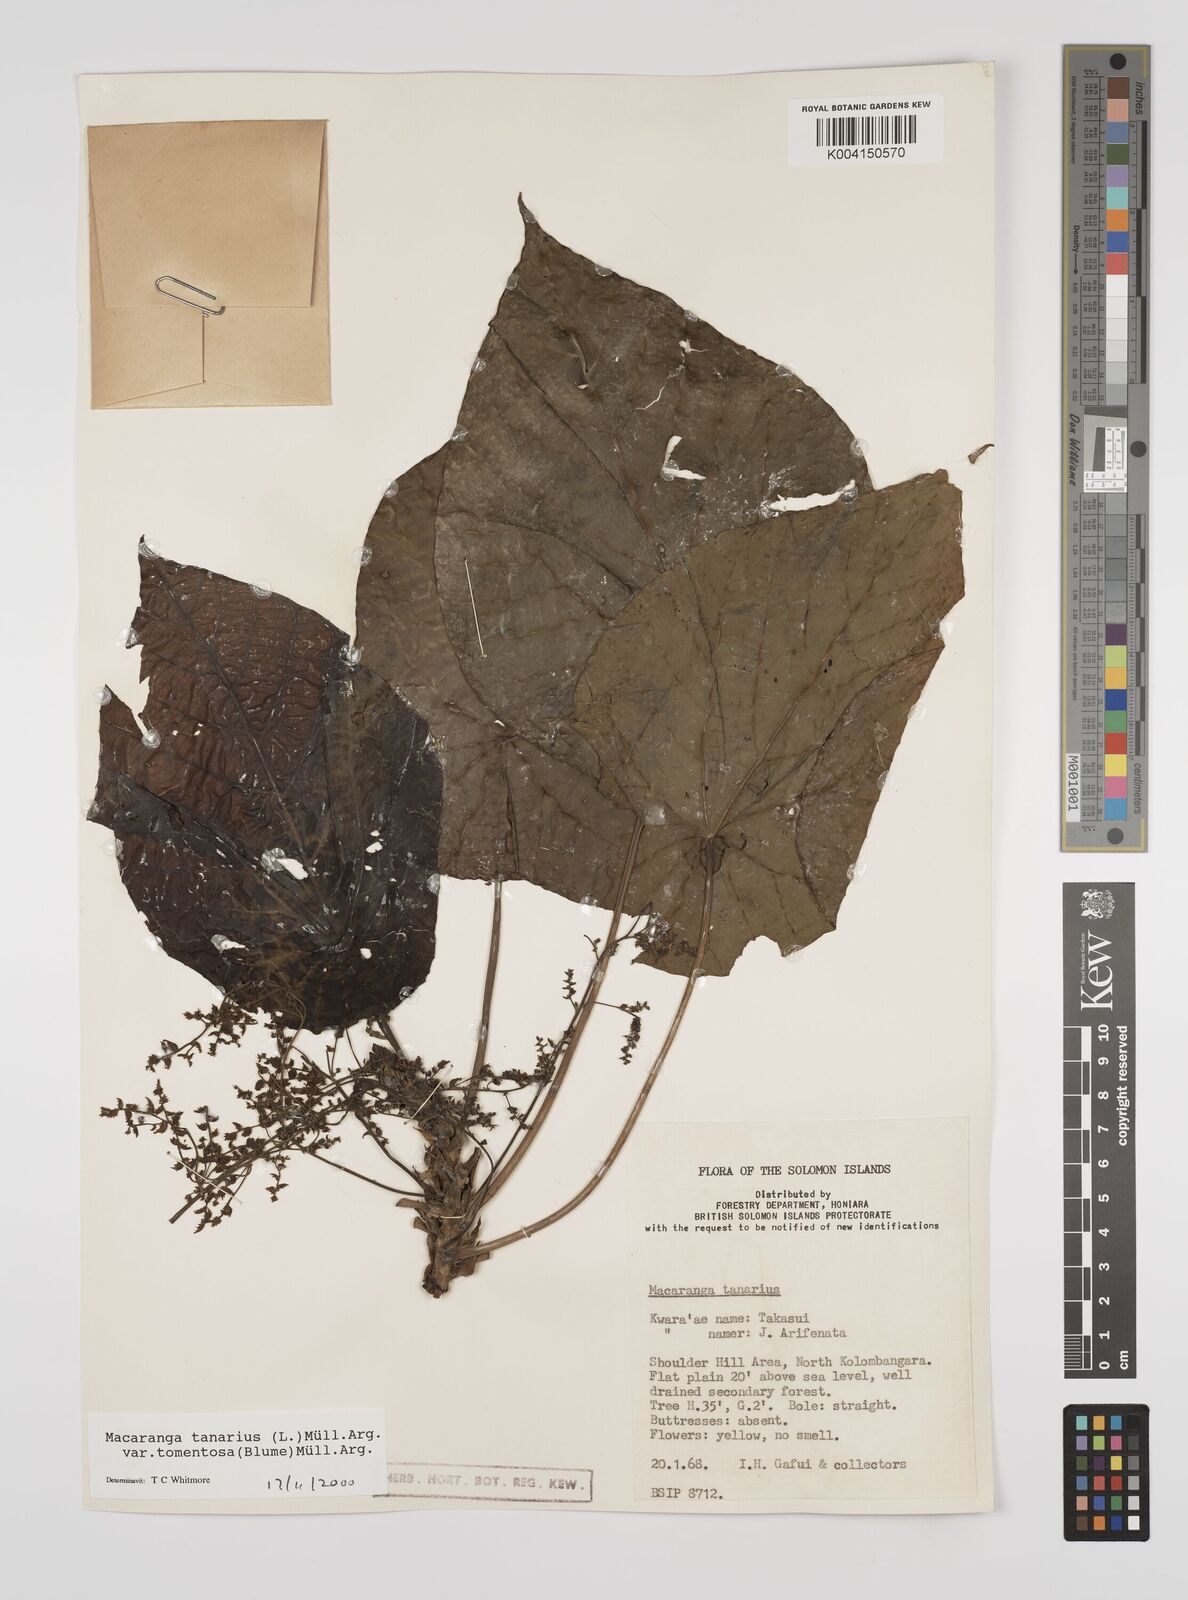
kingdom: Plantae
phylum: Tracheophyta
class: Magnoliopsida
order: Malpighiales
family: Euphorbiaceae
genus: Macaranga
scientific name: Macaranga tanarius
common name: Parasol leaf tree
